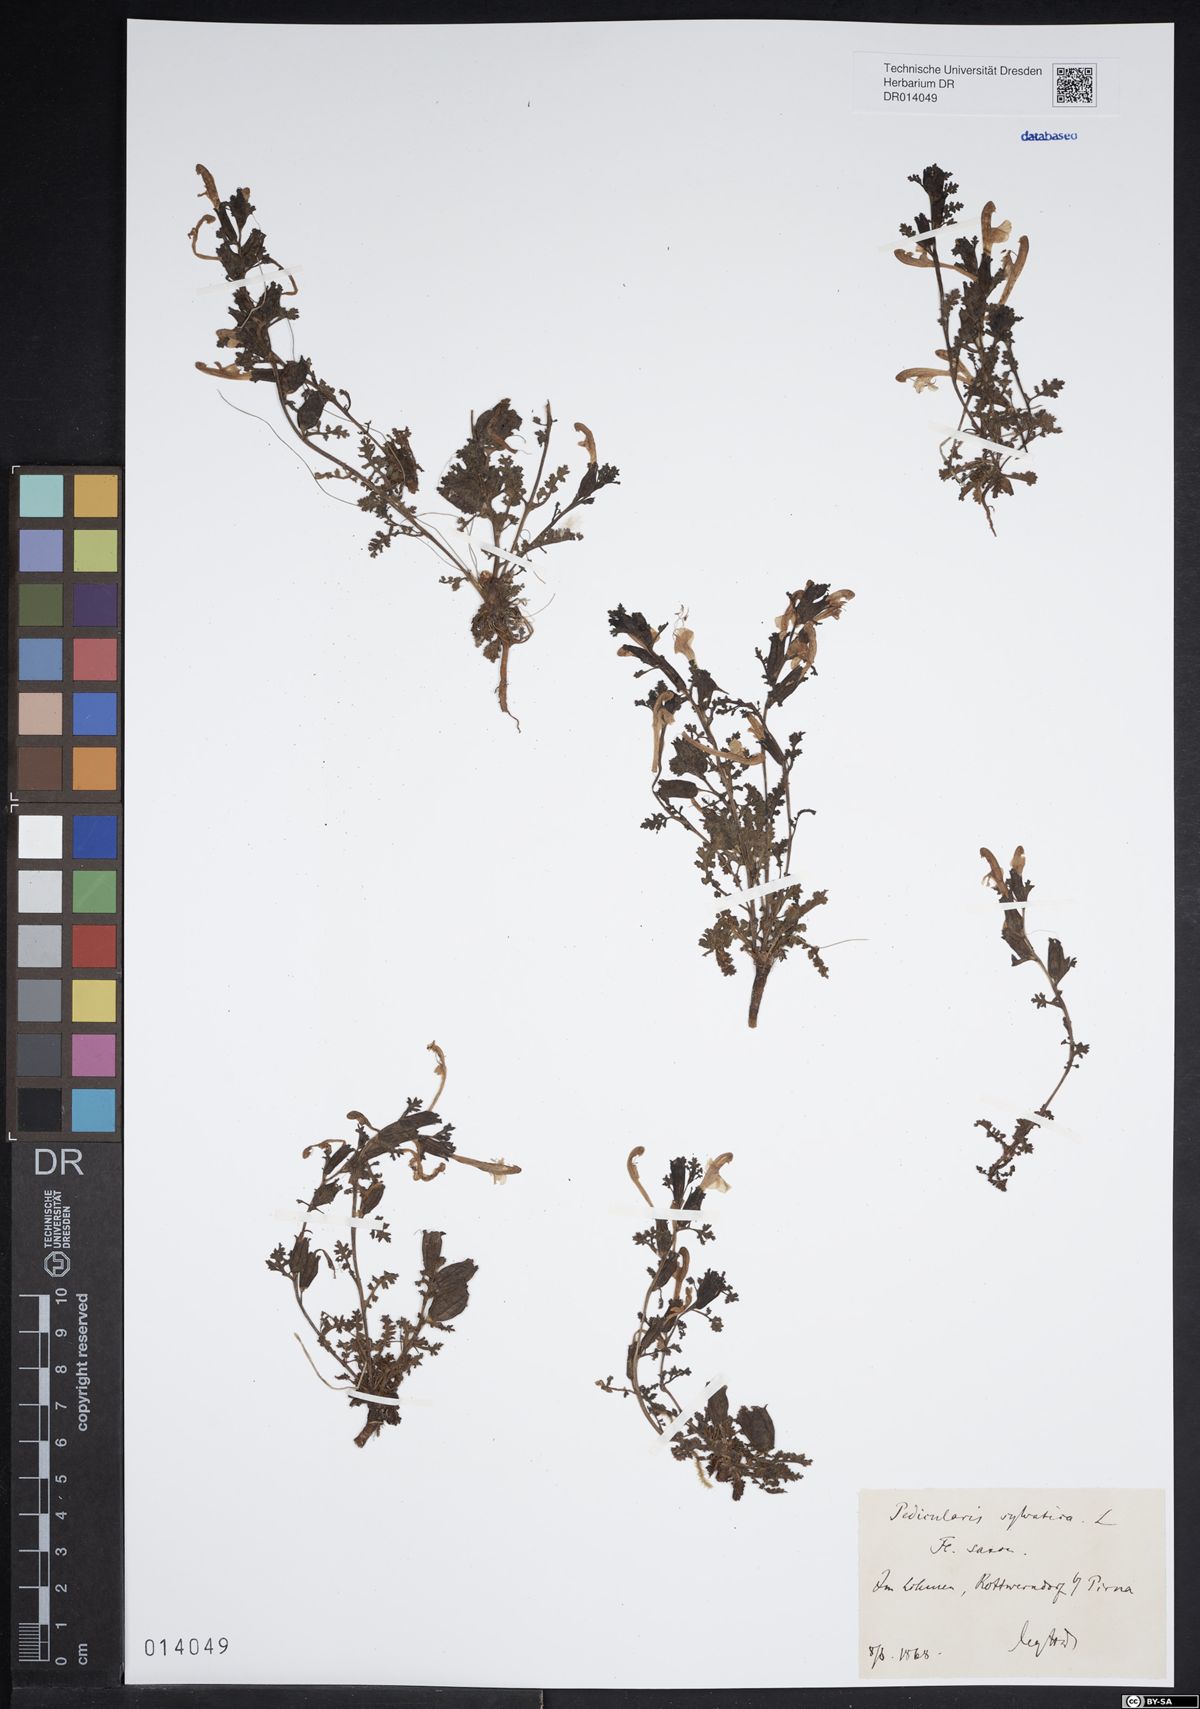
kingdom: Plantae
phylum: Tracheophyta
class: Magnoliopsida
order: Lamiales
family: Orobanchaceae
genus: Pedicularis
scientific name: Pedicularis sylvatica
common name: Lousewort
